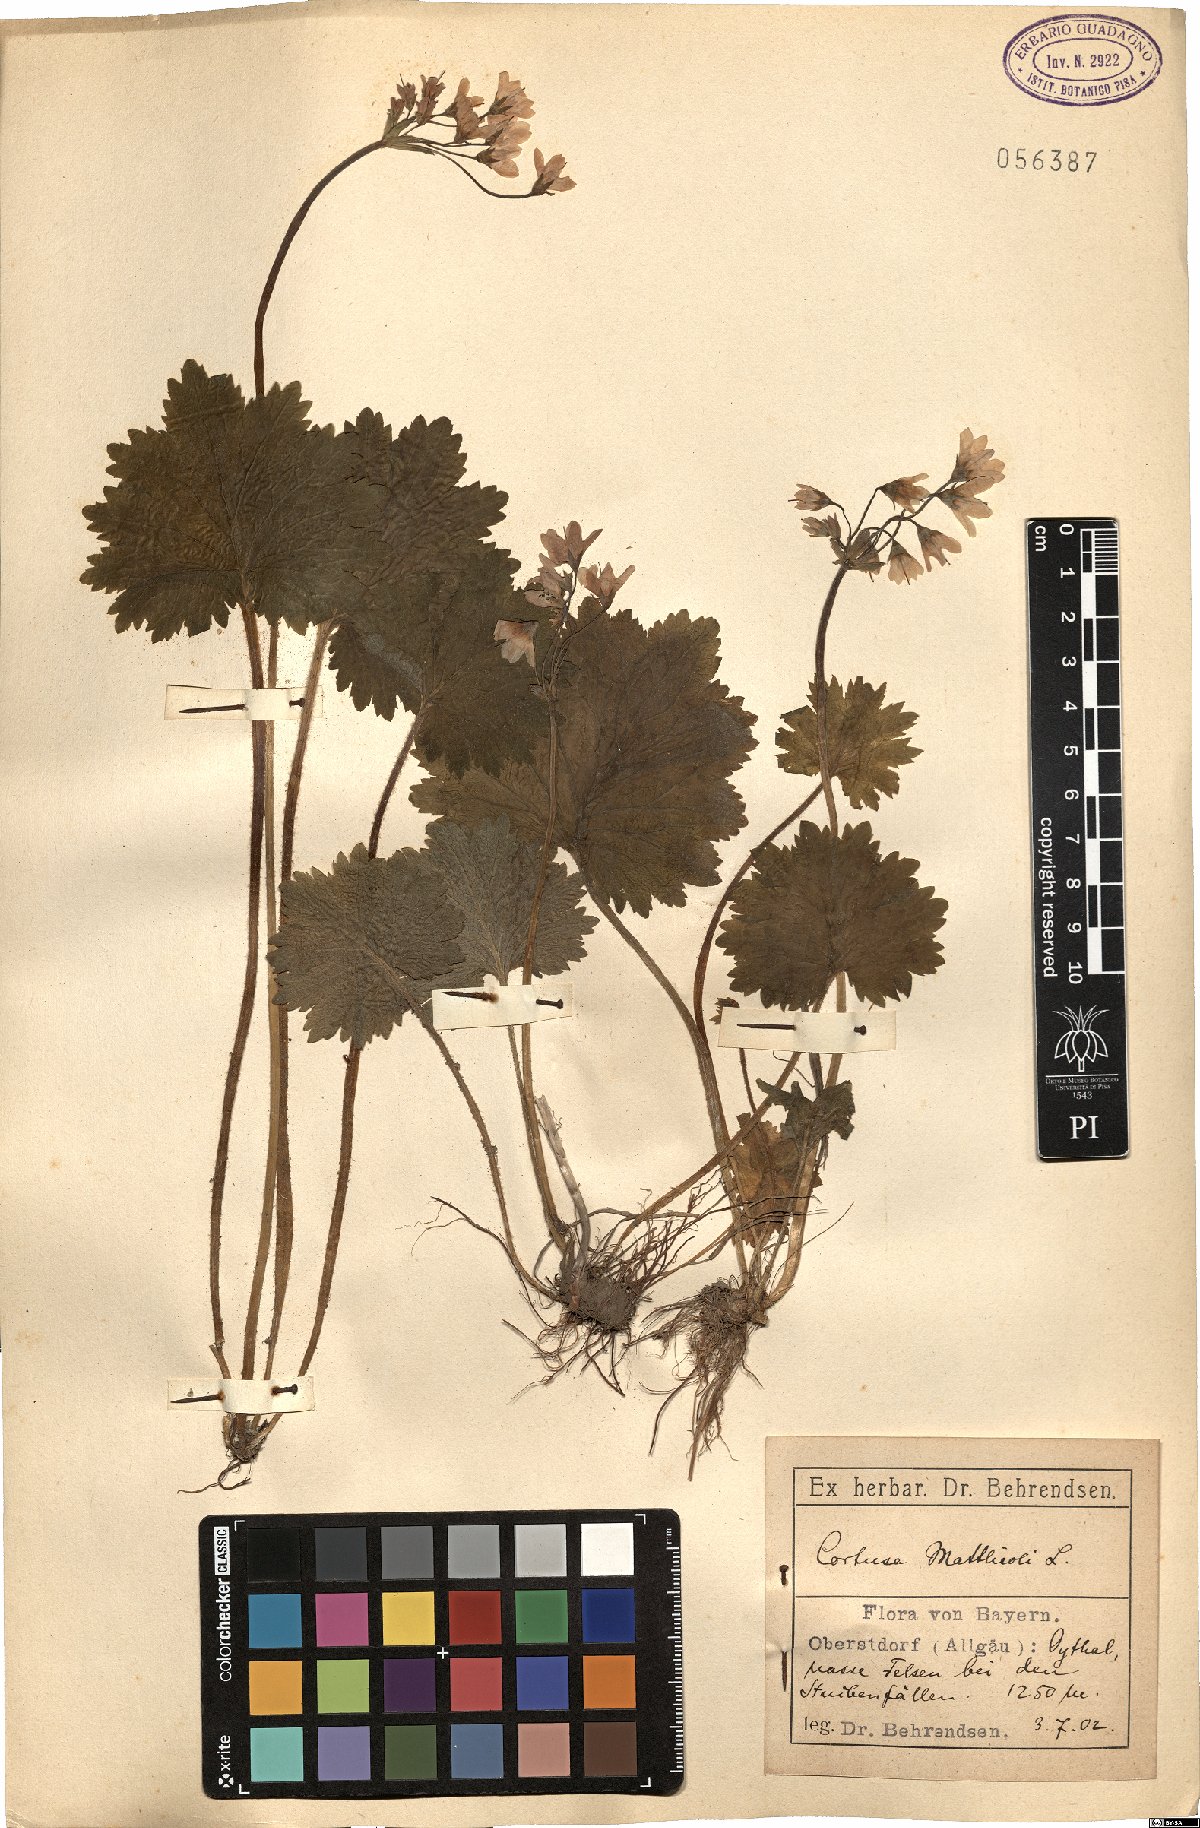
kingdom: Plantae
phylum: Tracheophyta
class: Magnoliopsida
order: Ericales
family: Primulaceae
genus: Primula
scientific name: Primula matthioli
